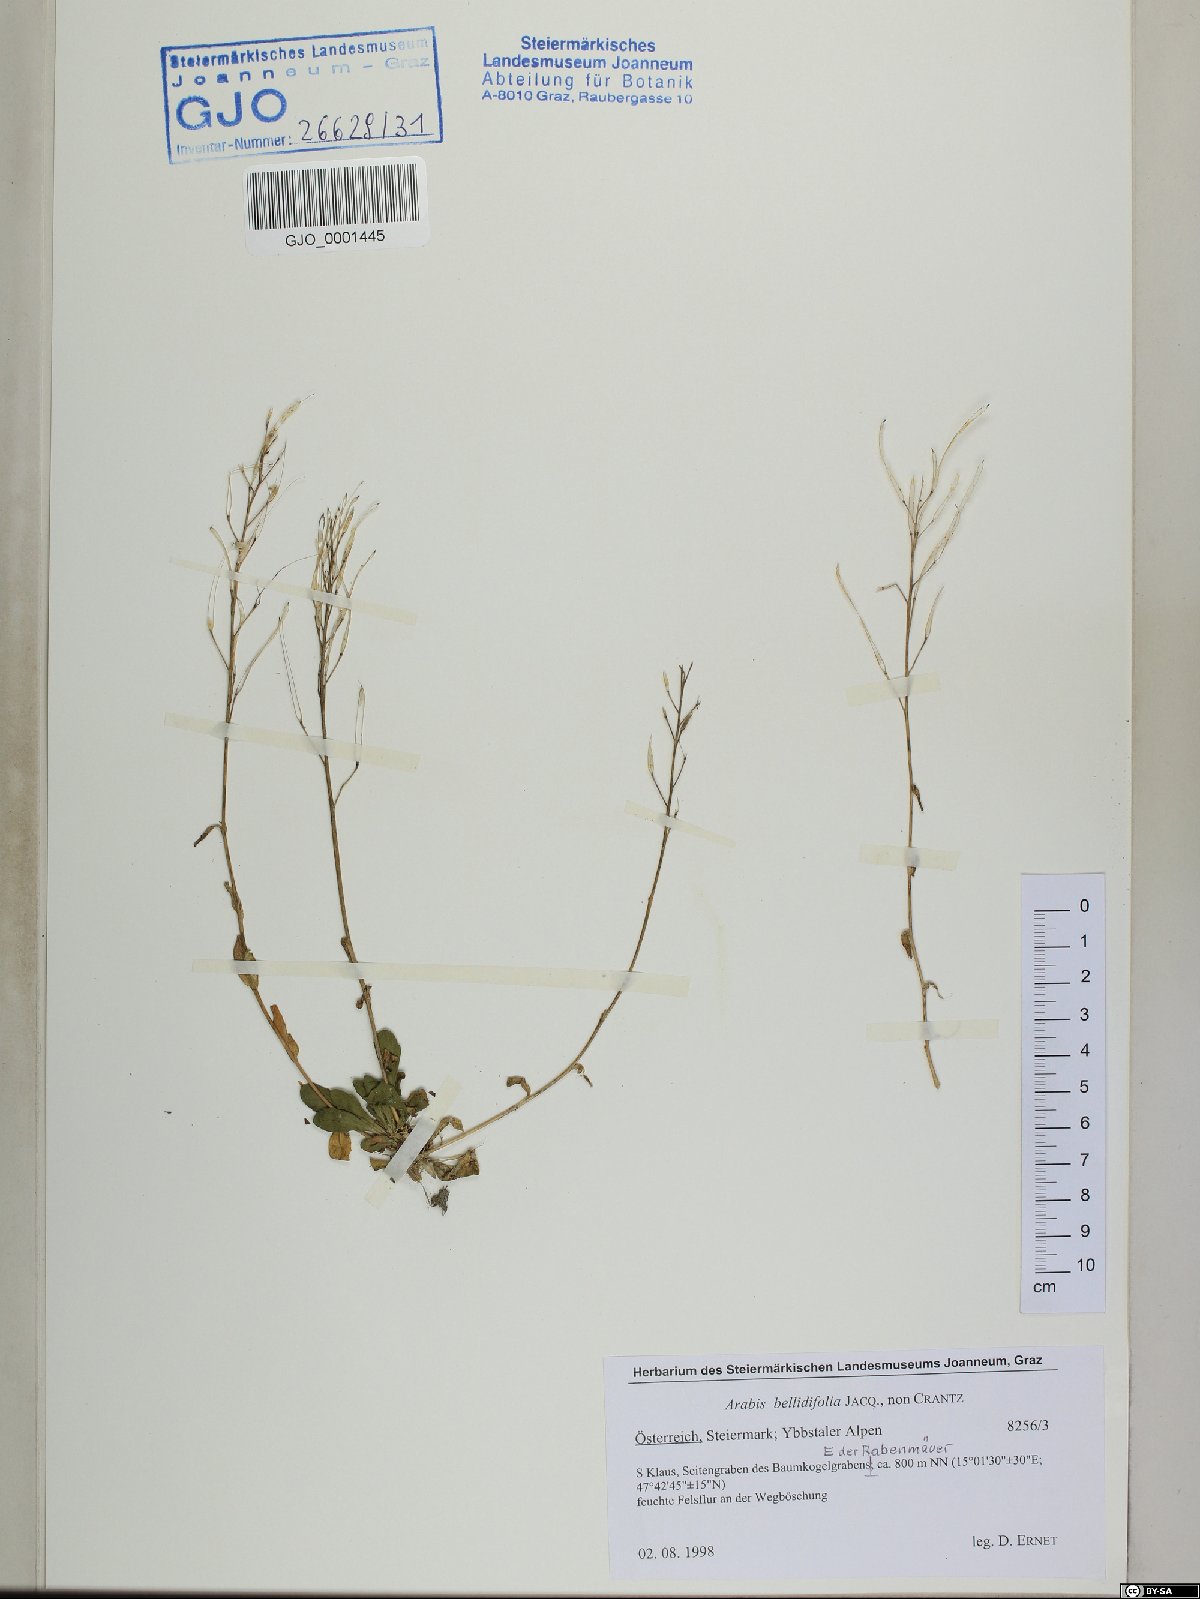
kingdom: Plantae
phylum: Tracheophyta
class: Magnoliopsida
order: Brassicales
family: Brassicaceae
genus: Arabis
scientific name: Arabis soyeri
